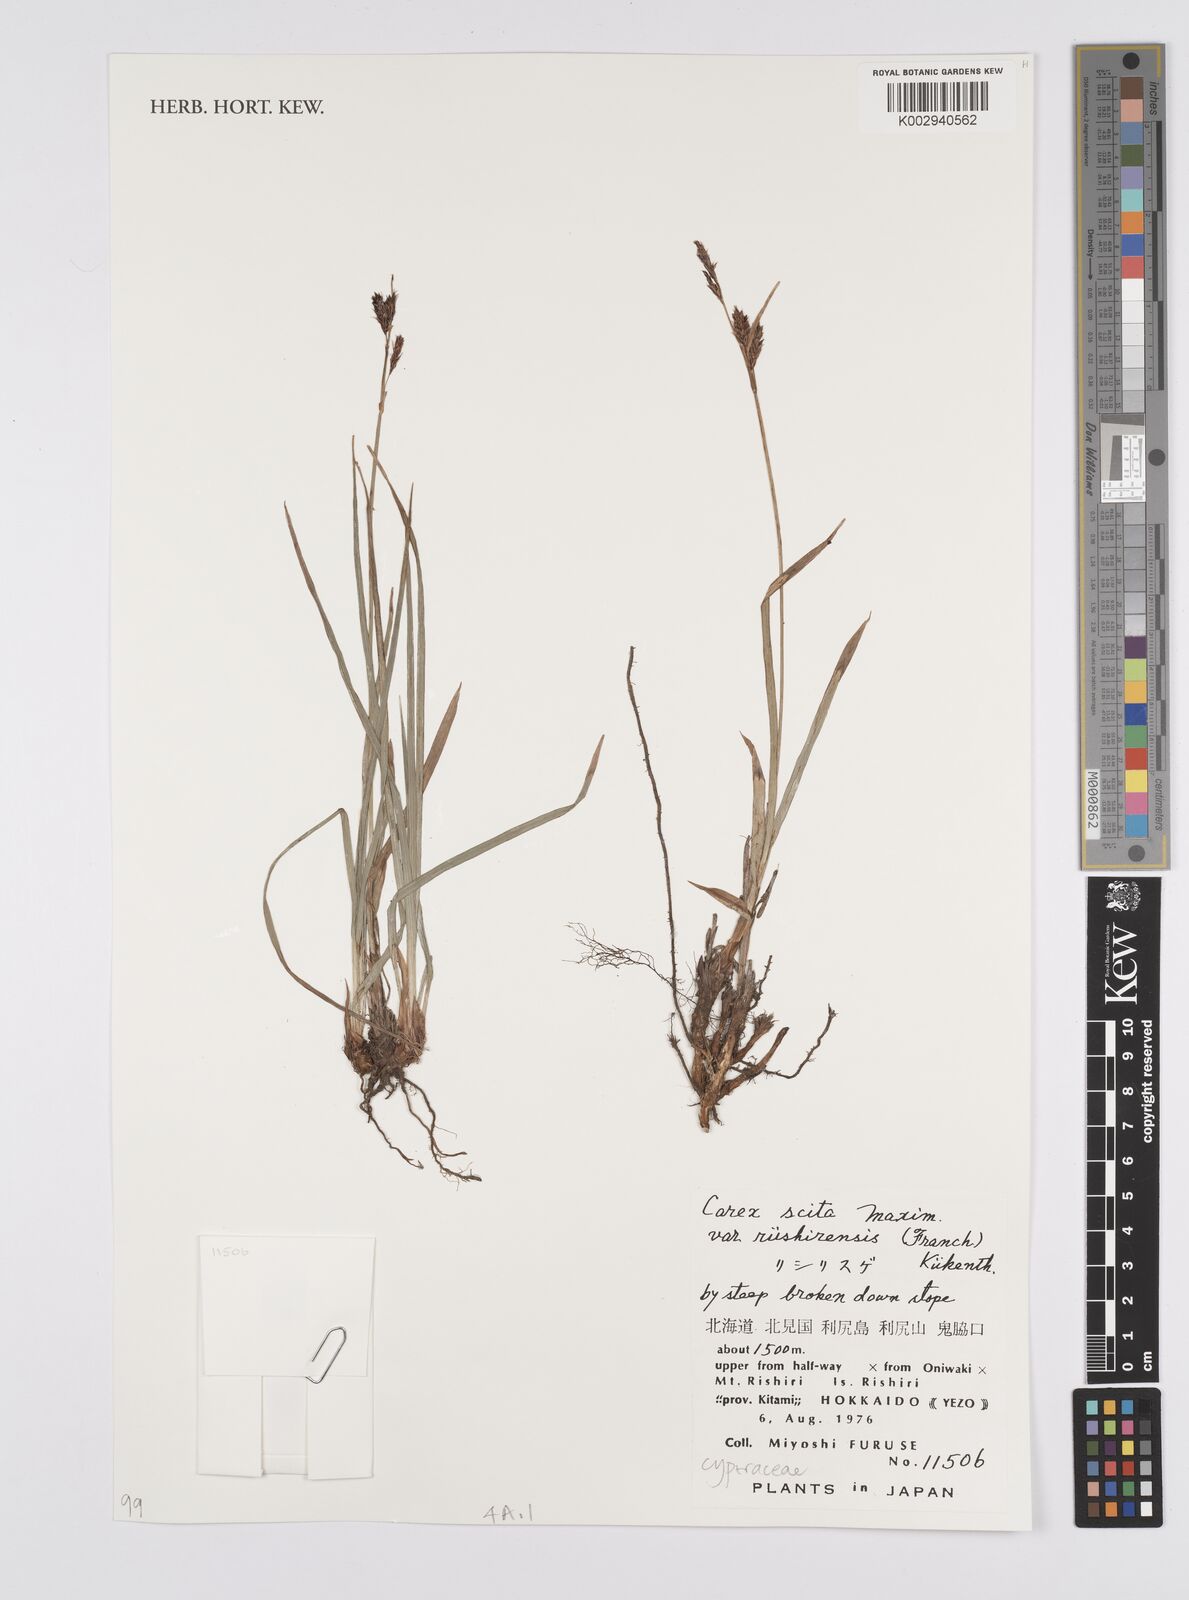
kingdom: Plantae
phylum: Tracheophyta
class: Liliopsida
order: Poales
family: Cyperaceae
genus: Carex
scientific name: Carex scita
